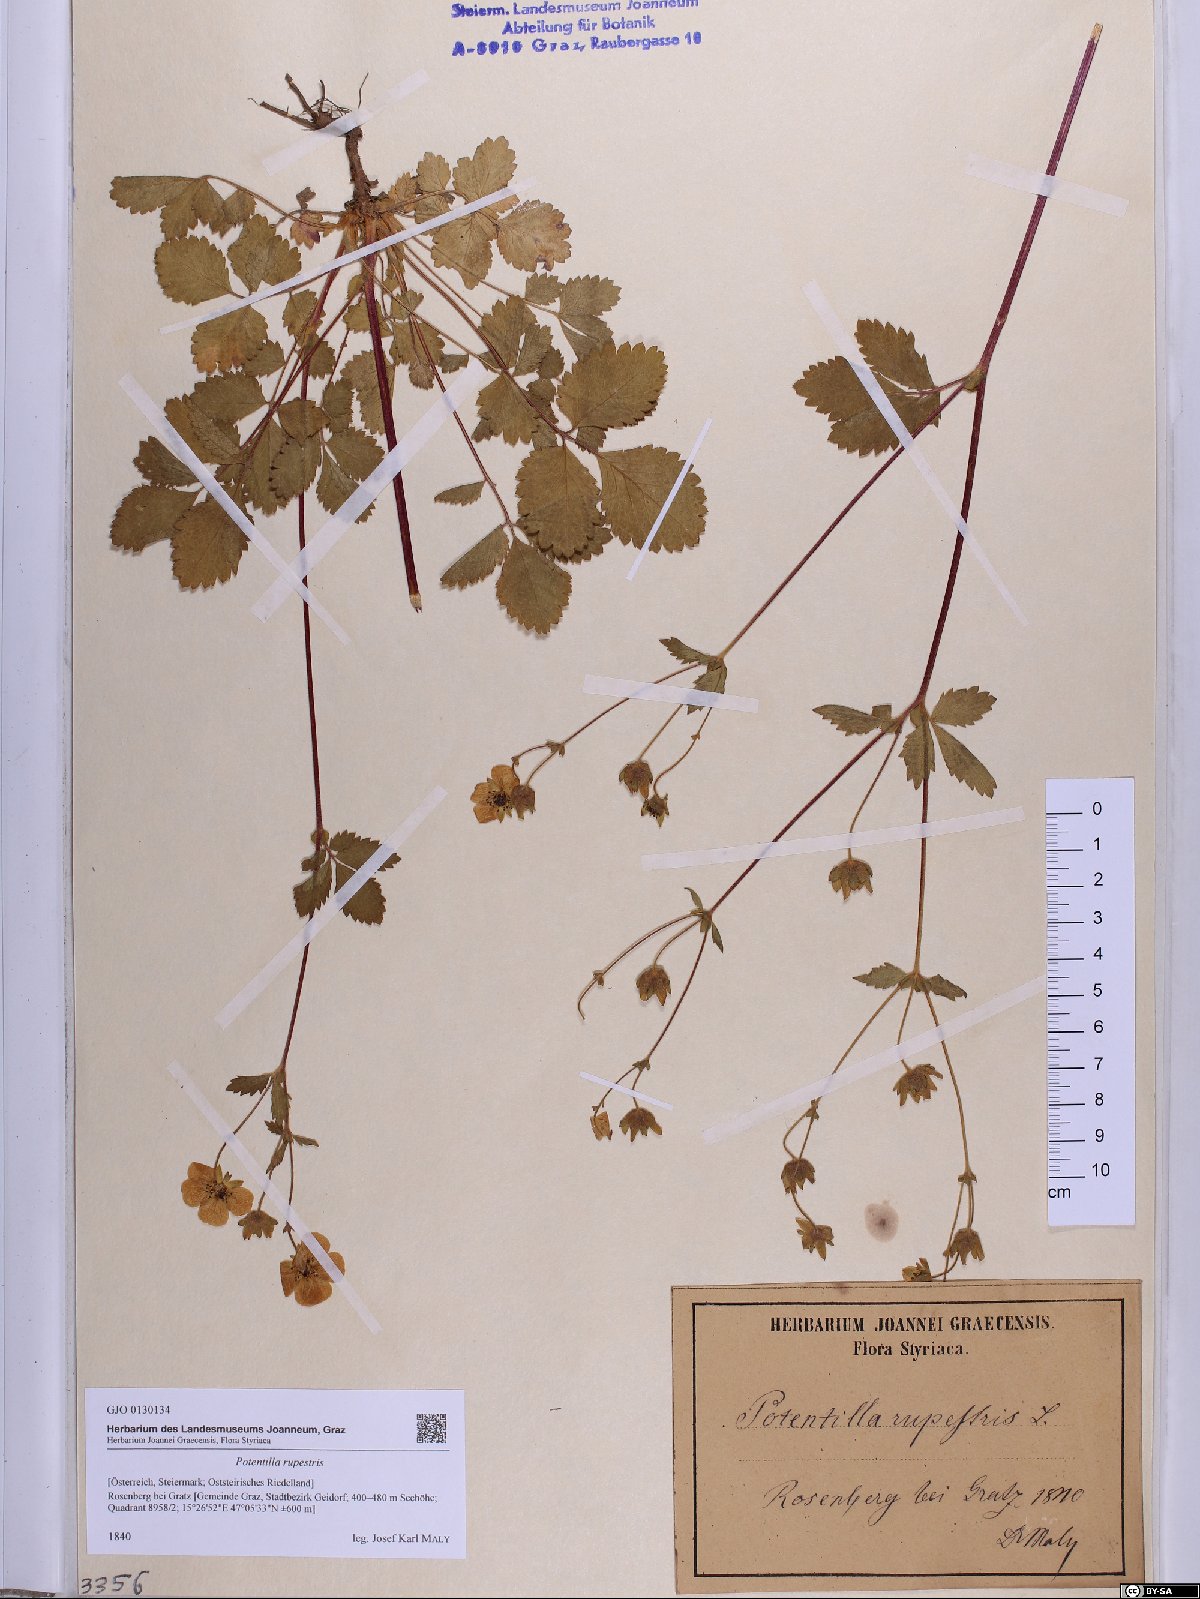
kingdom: Plantae
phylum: Tracheophyta
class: Magnoliopsida
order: Rosales
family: Rosaceae
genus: Drymocallis
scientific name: Drymocallis rupestris
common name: Rock cinquefoil
